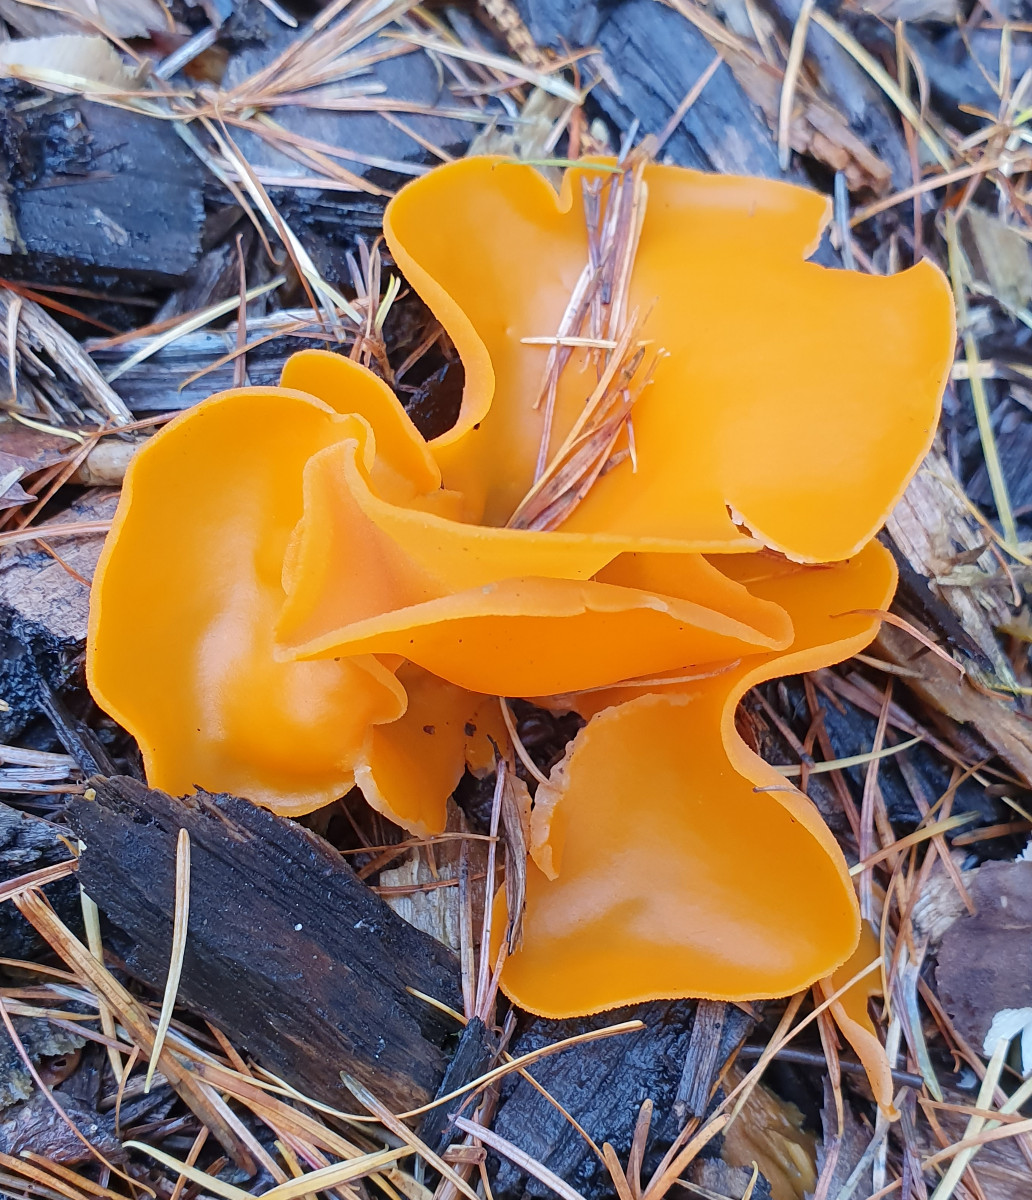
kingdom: Fungi
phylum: Ascomycota
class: Pezizomycetes
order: Pezizales
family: Pyronemataceae
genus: Aleuria
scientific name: Aleuria aurantia
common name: almindelig orangebæger
